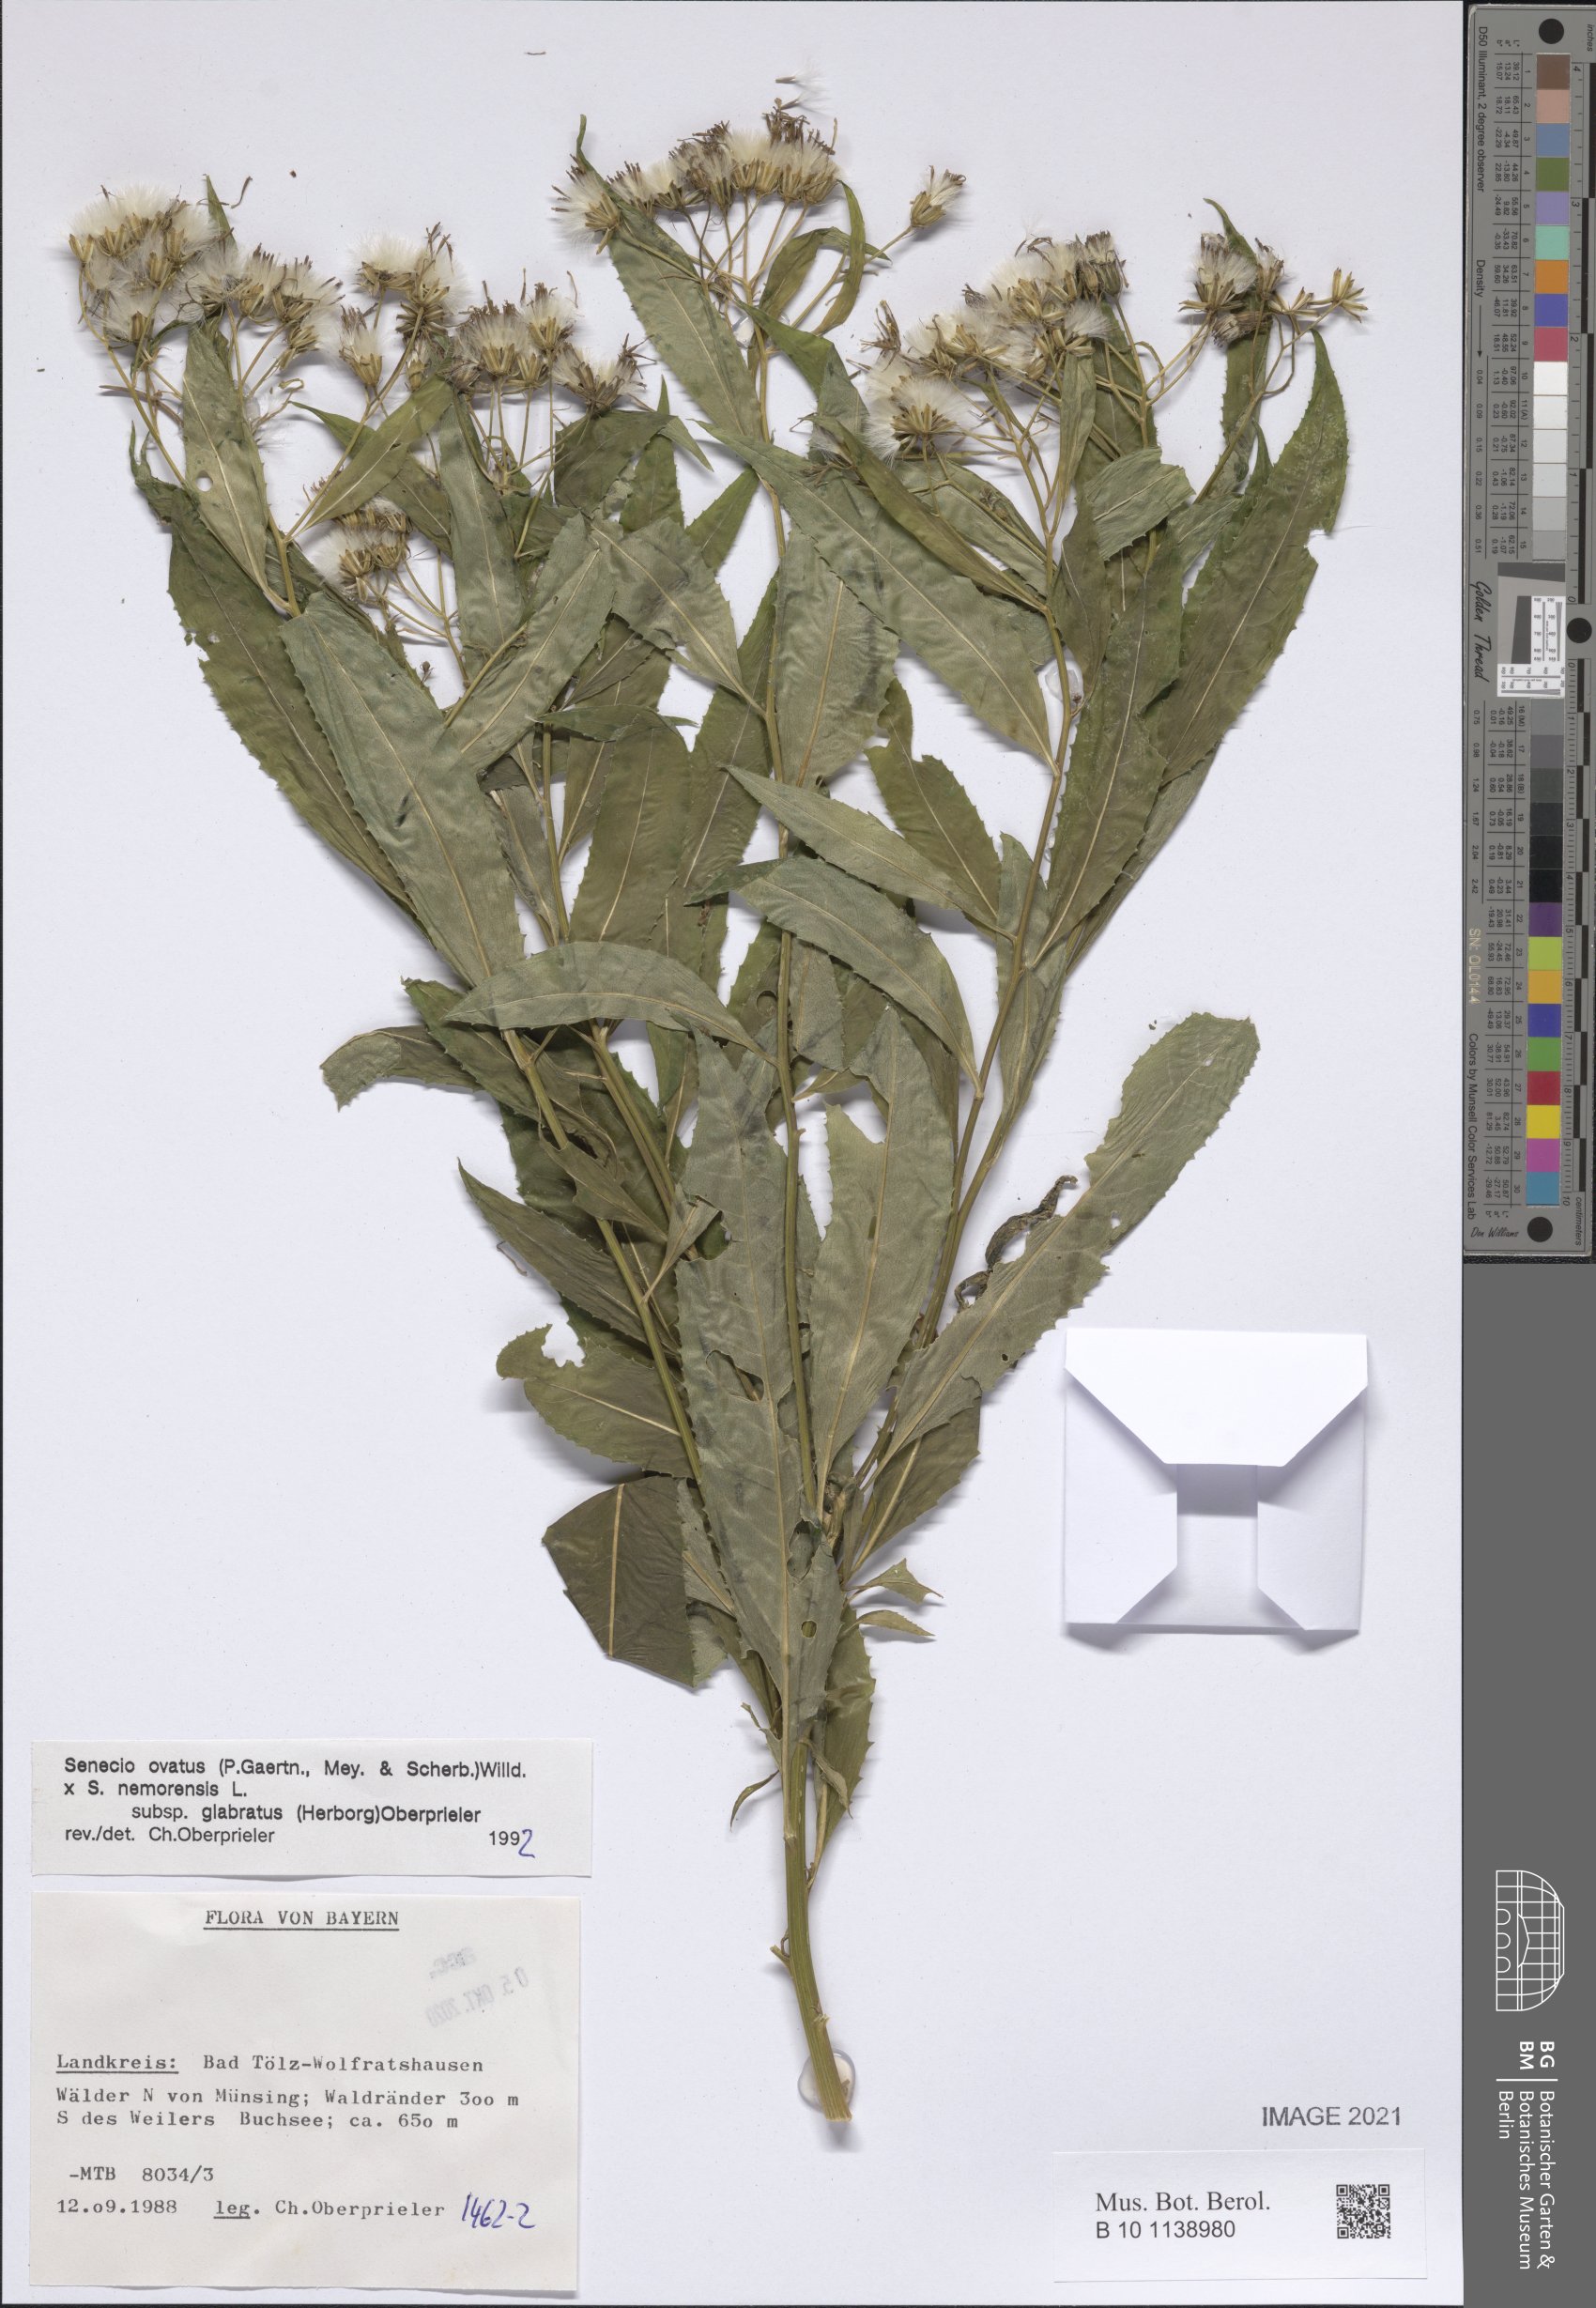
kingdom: Plantae
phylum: Tracheophyta
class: Magnoliopsida
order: Asterales
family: Asteraceae
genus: Senecio
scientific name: Senecio ovatus
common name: Wood ragwort
